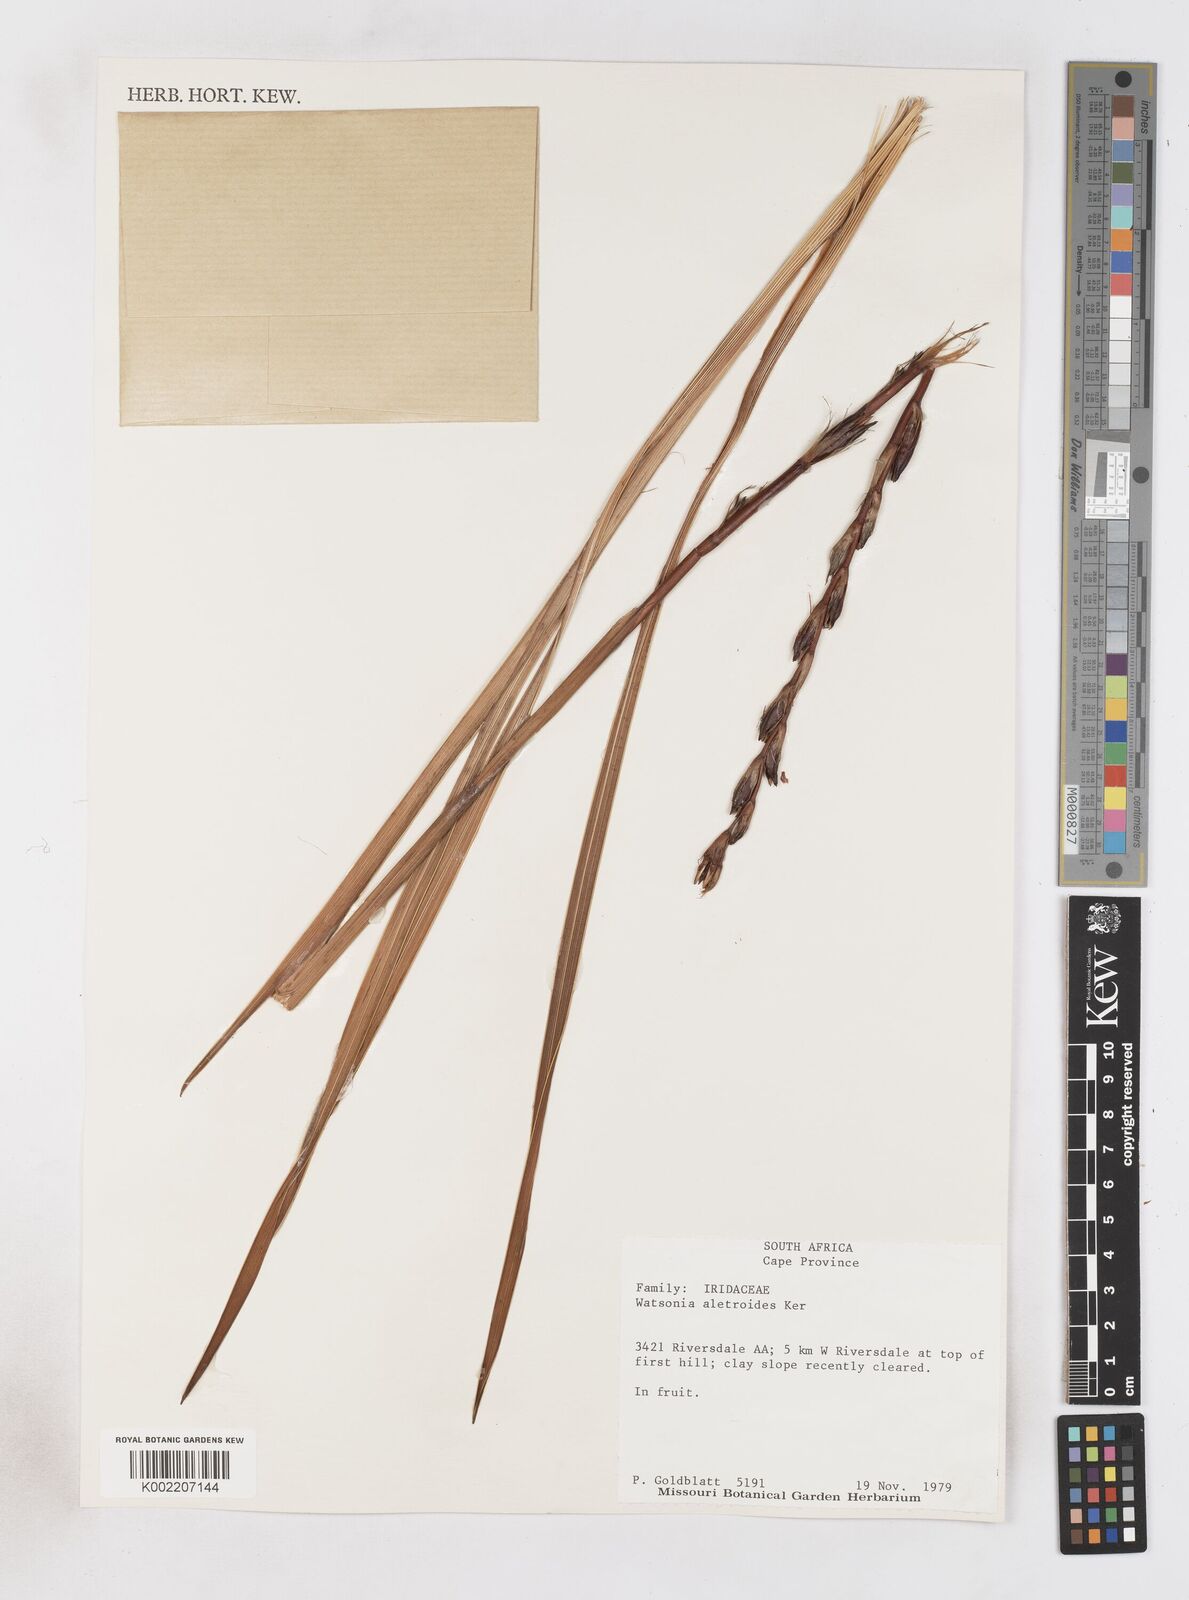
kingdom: Plantae
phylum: Tracheophyta
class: Liliopsida
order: Asparagales
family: Iridaceae
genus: Watsonia
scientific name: Watsonia aletroides
